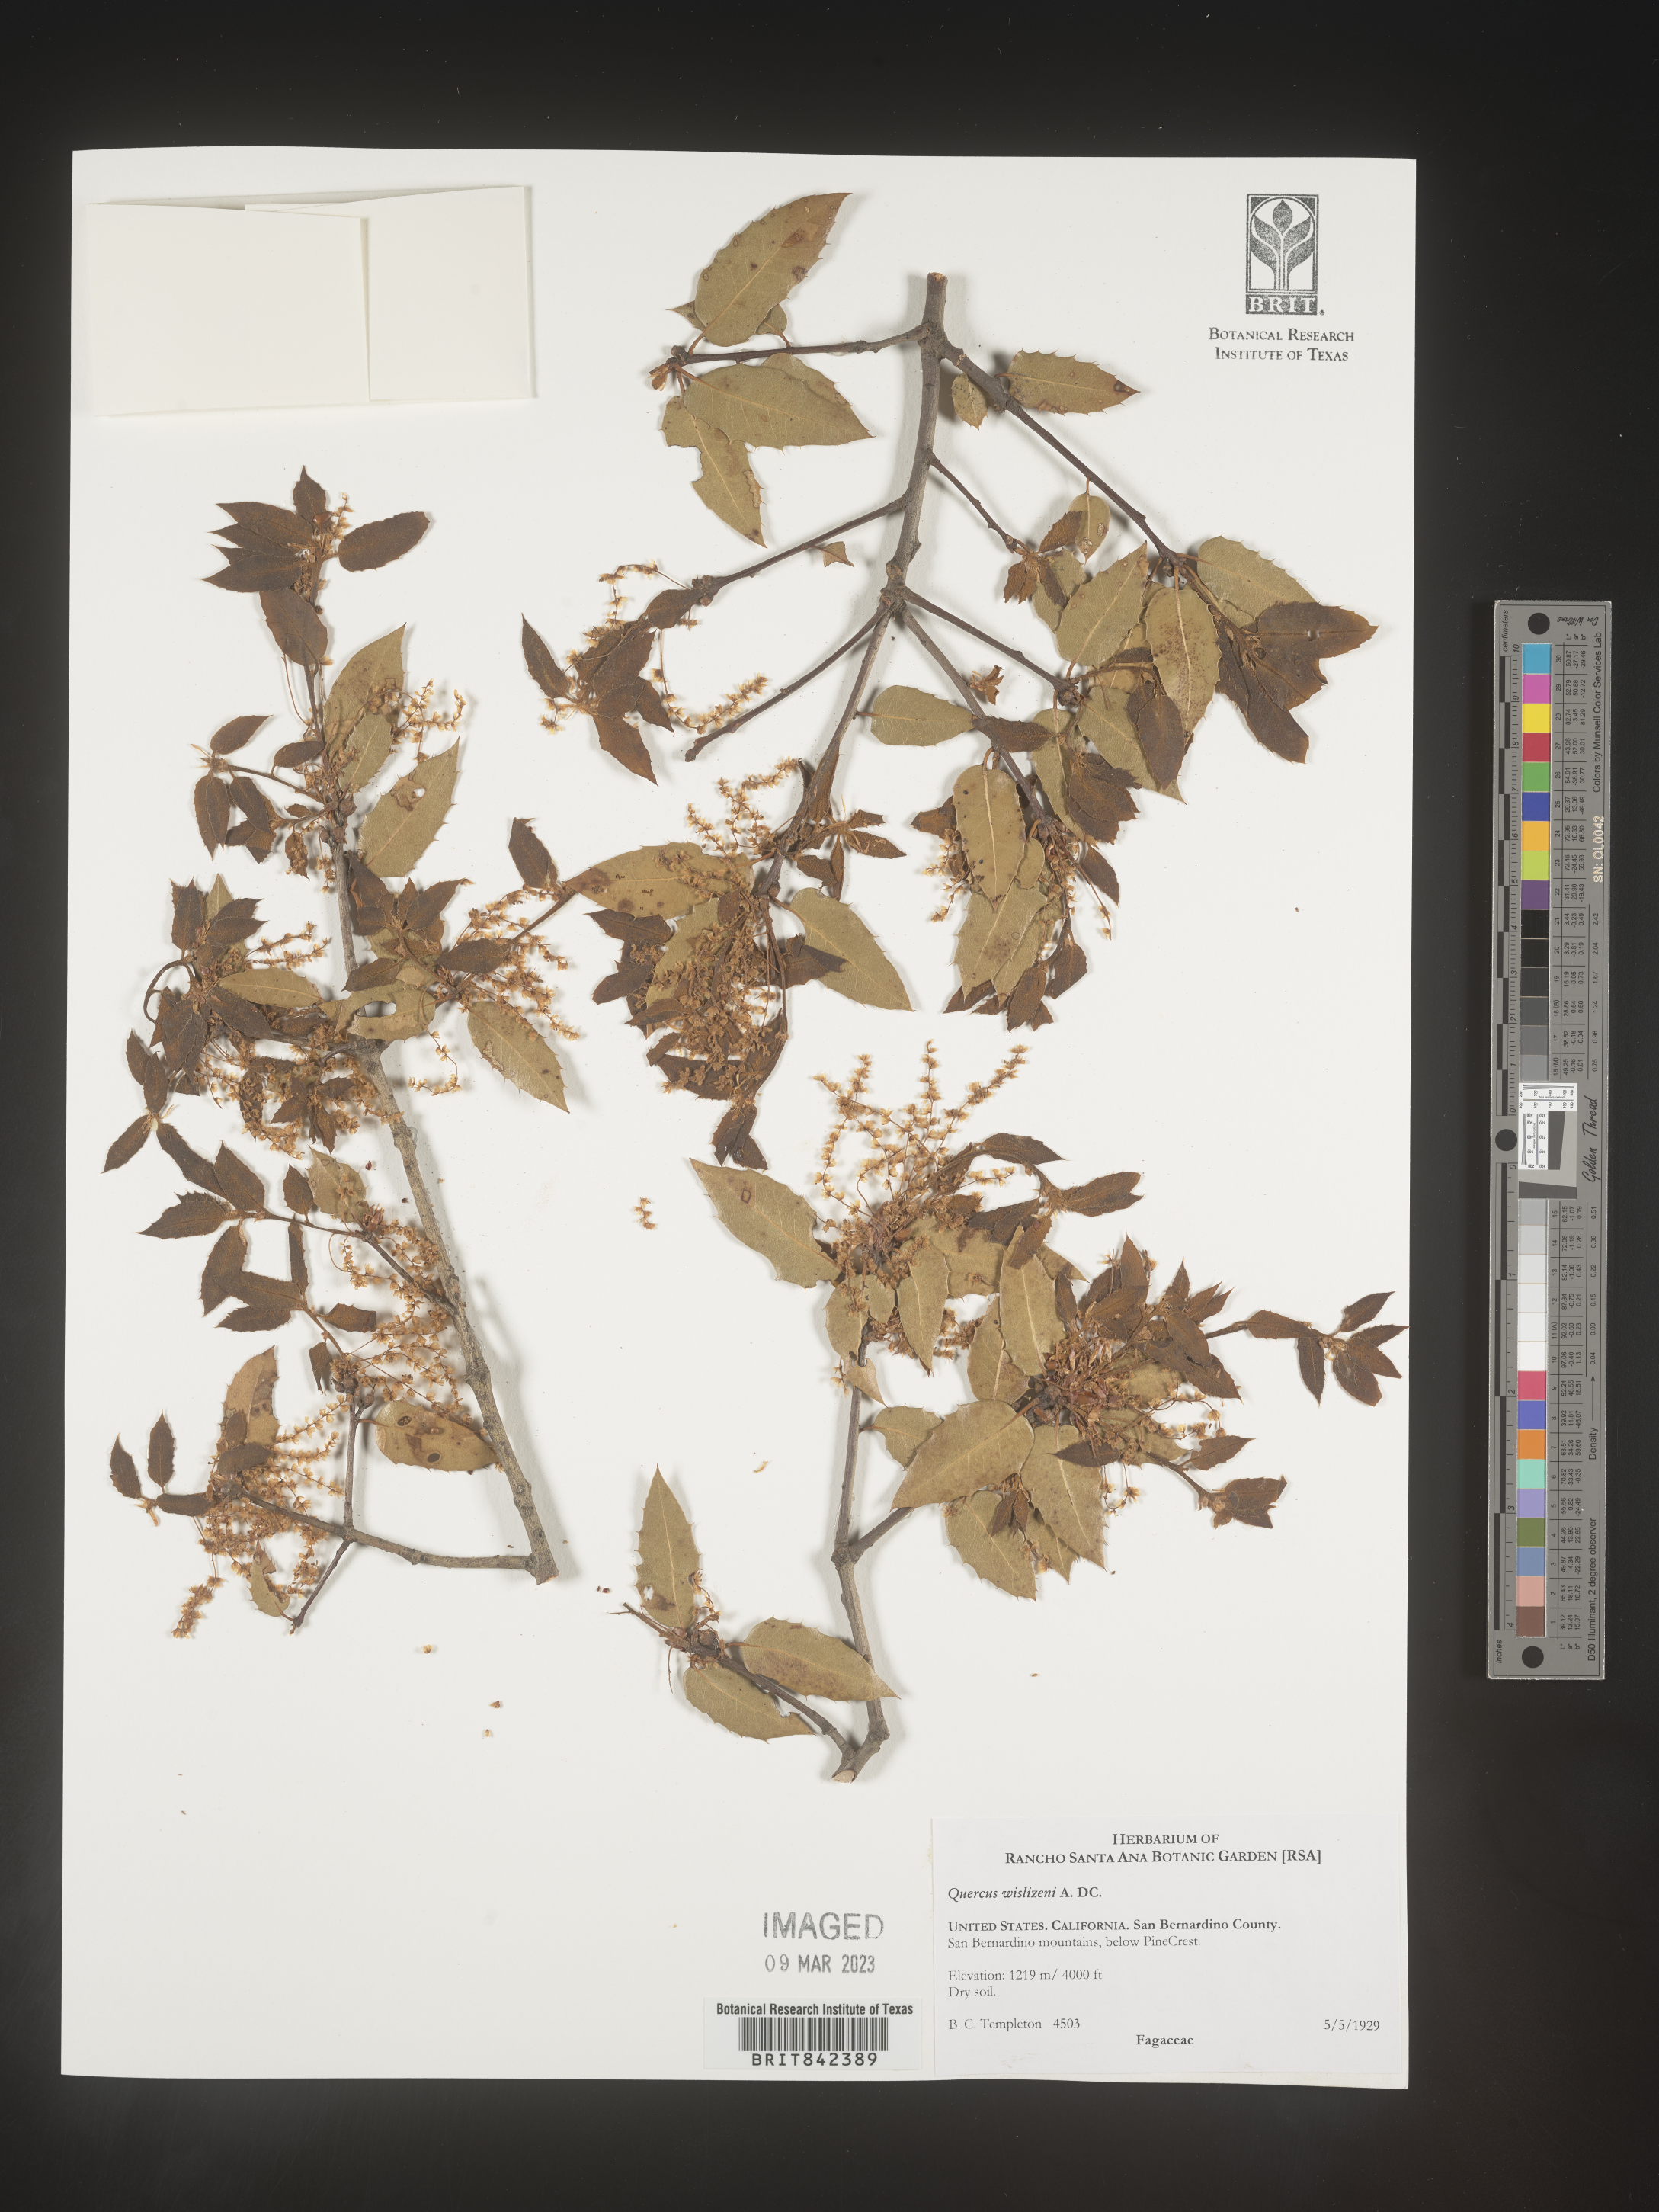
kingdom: Plantae
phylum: Tracheophyta
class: Magnoliopsida
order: Fagales
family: Fagaceae
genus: Quercus
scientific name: Quercus wislizeni
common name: Interior live oak
